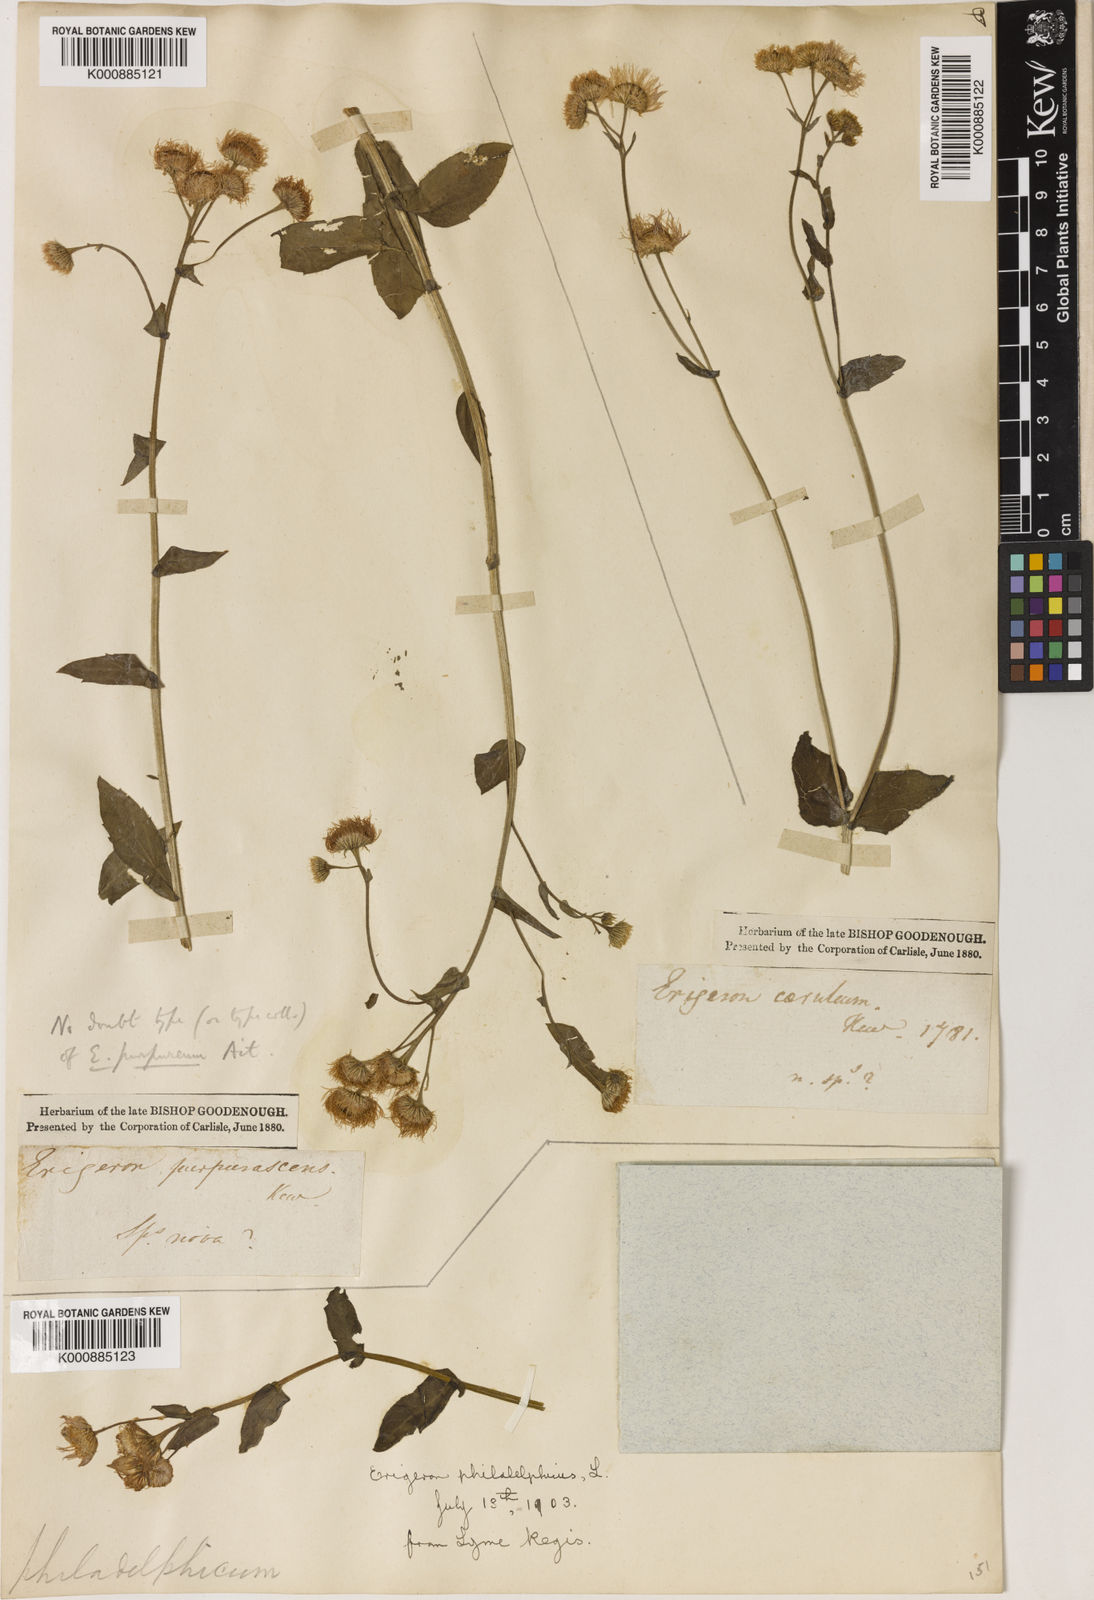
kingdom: Plantae
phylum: Tracheophyta
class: Magnoliopsida
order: Asterales
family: Asteraceae
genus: Erigeron
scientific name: Erigeron pulchellus
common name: Hairy fleabane
